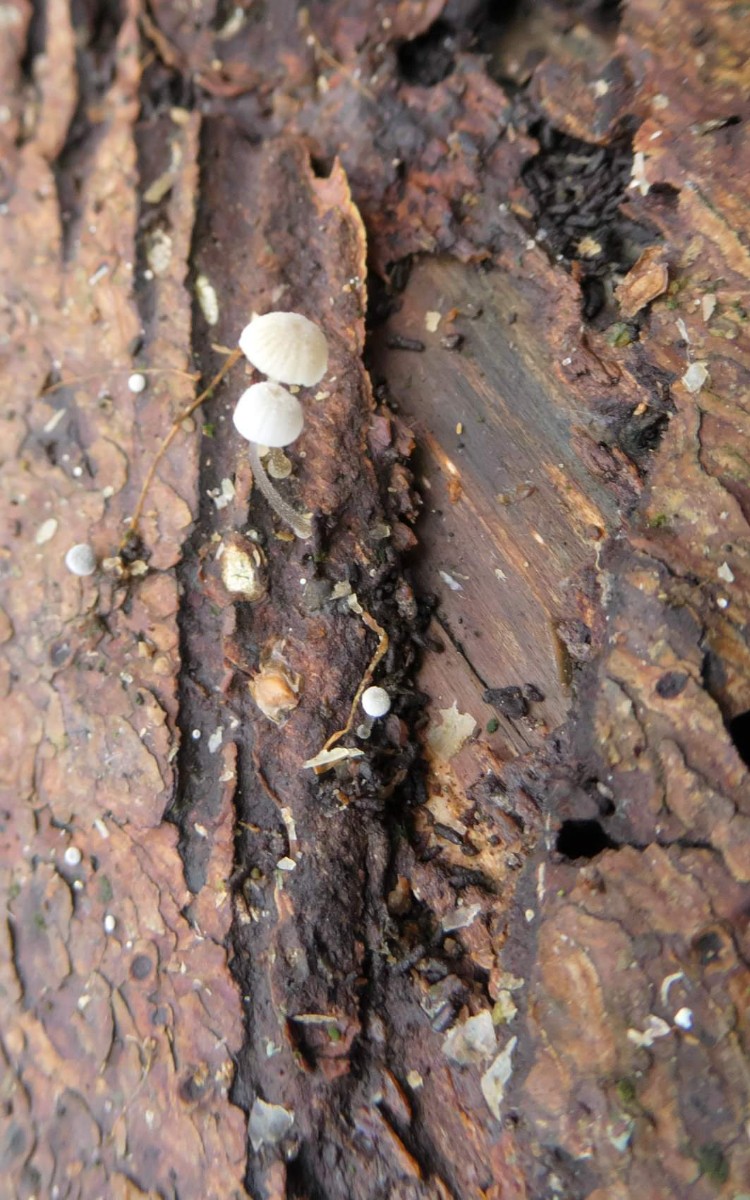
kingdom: Fungi
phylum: Basidiomycota
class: Agaricomycetes
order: Agaricales
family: Mycenaceae
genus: Mycena
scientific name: Mycena tenerrima
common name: pudret huesvamp
